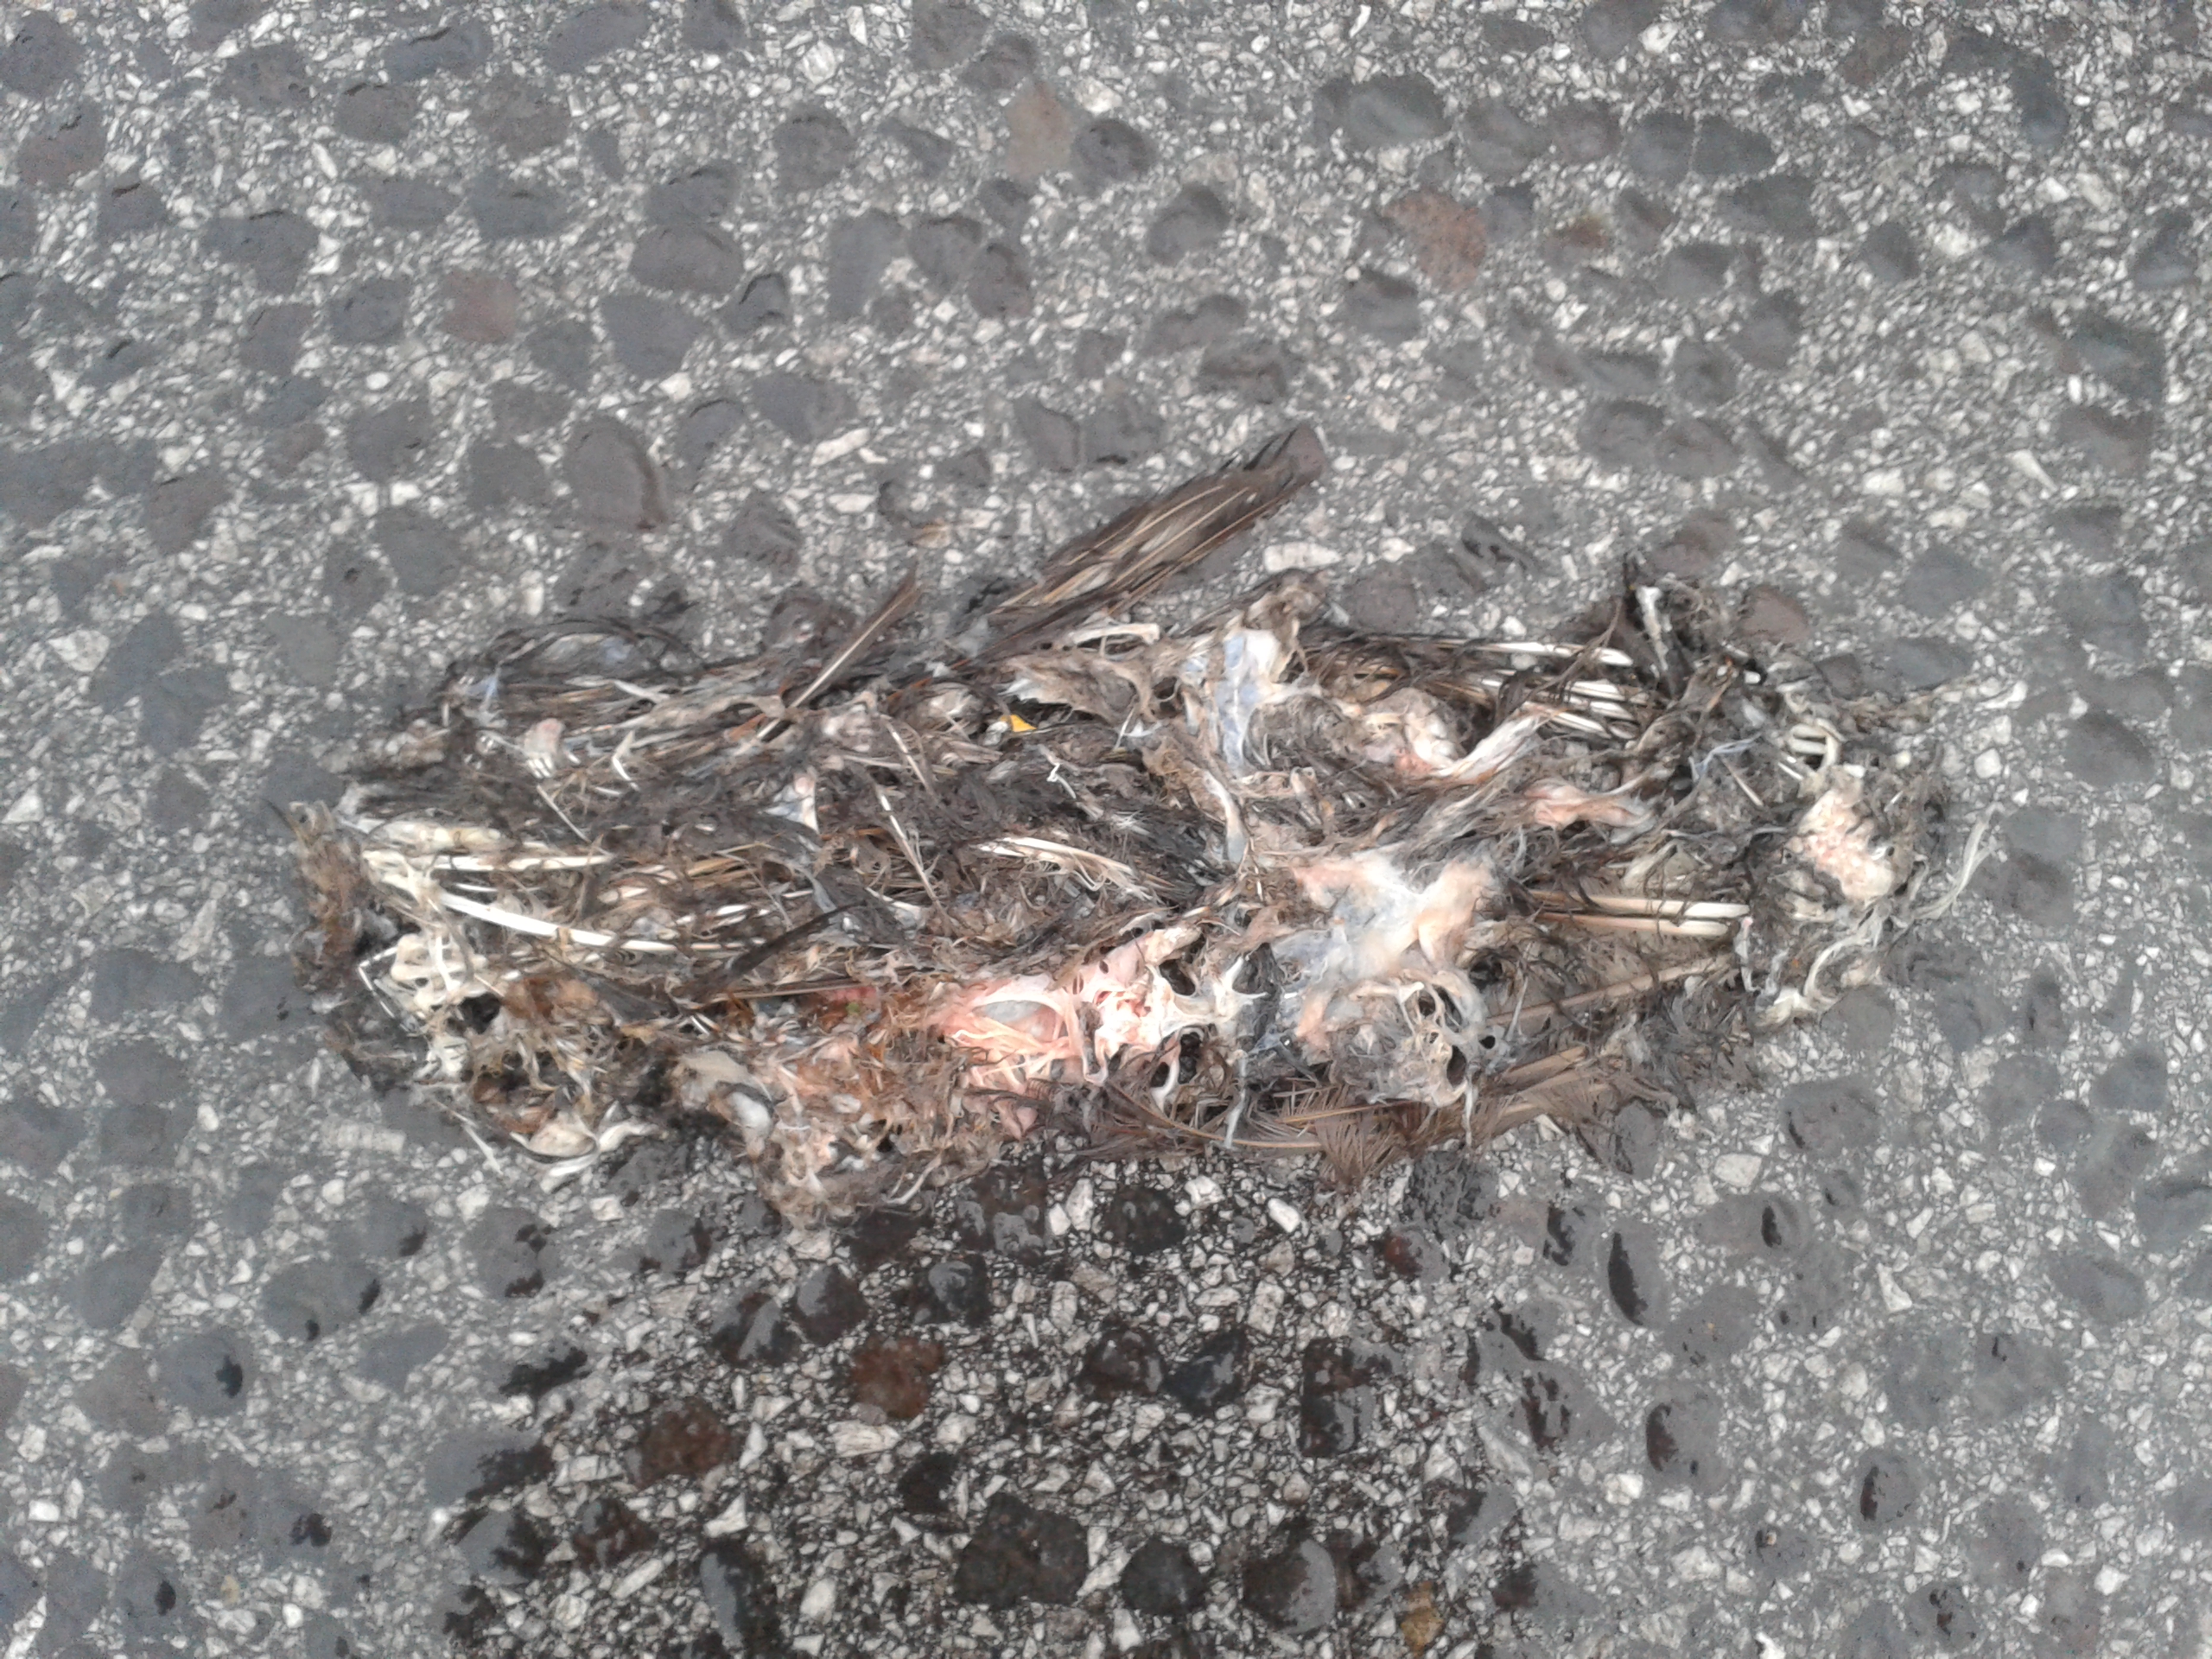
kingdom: Animalia
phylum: Chordata
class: Aves
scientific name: Aves
